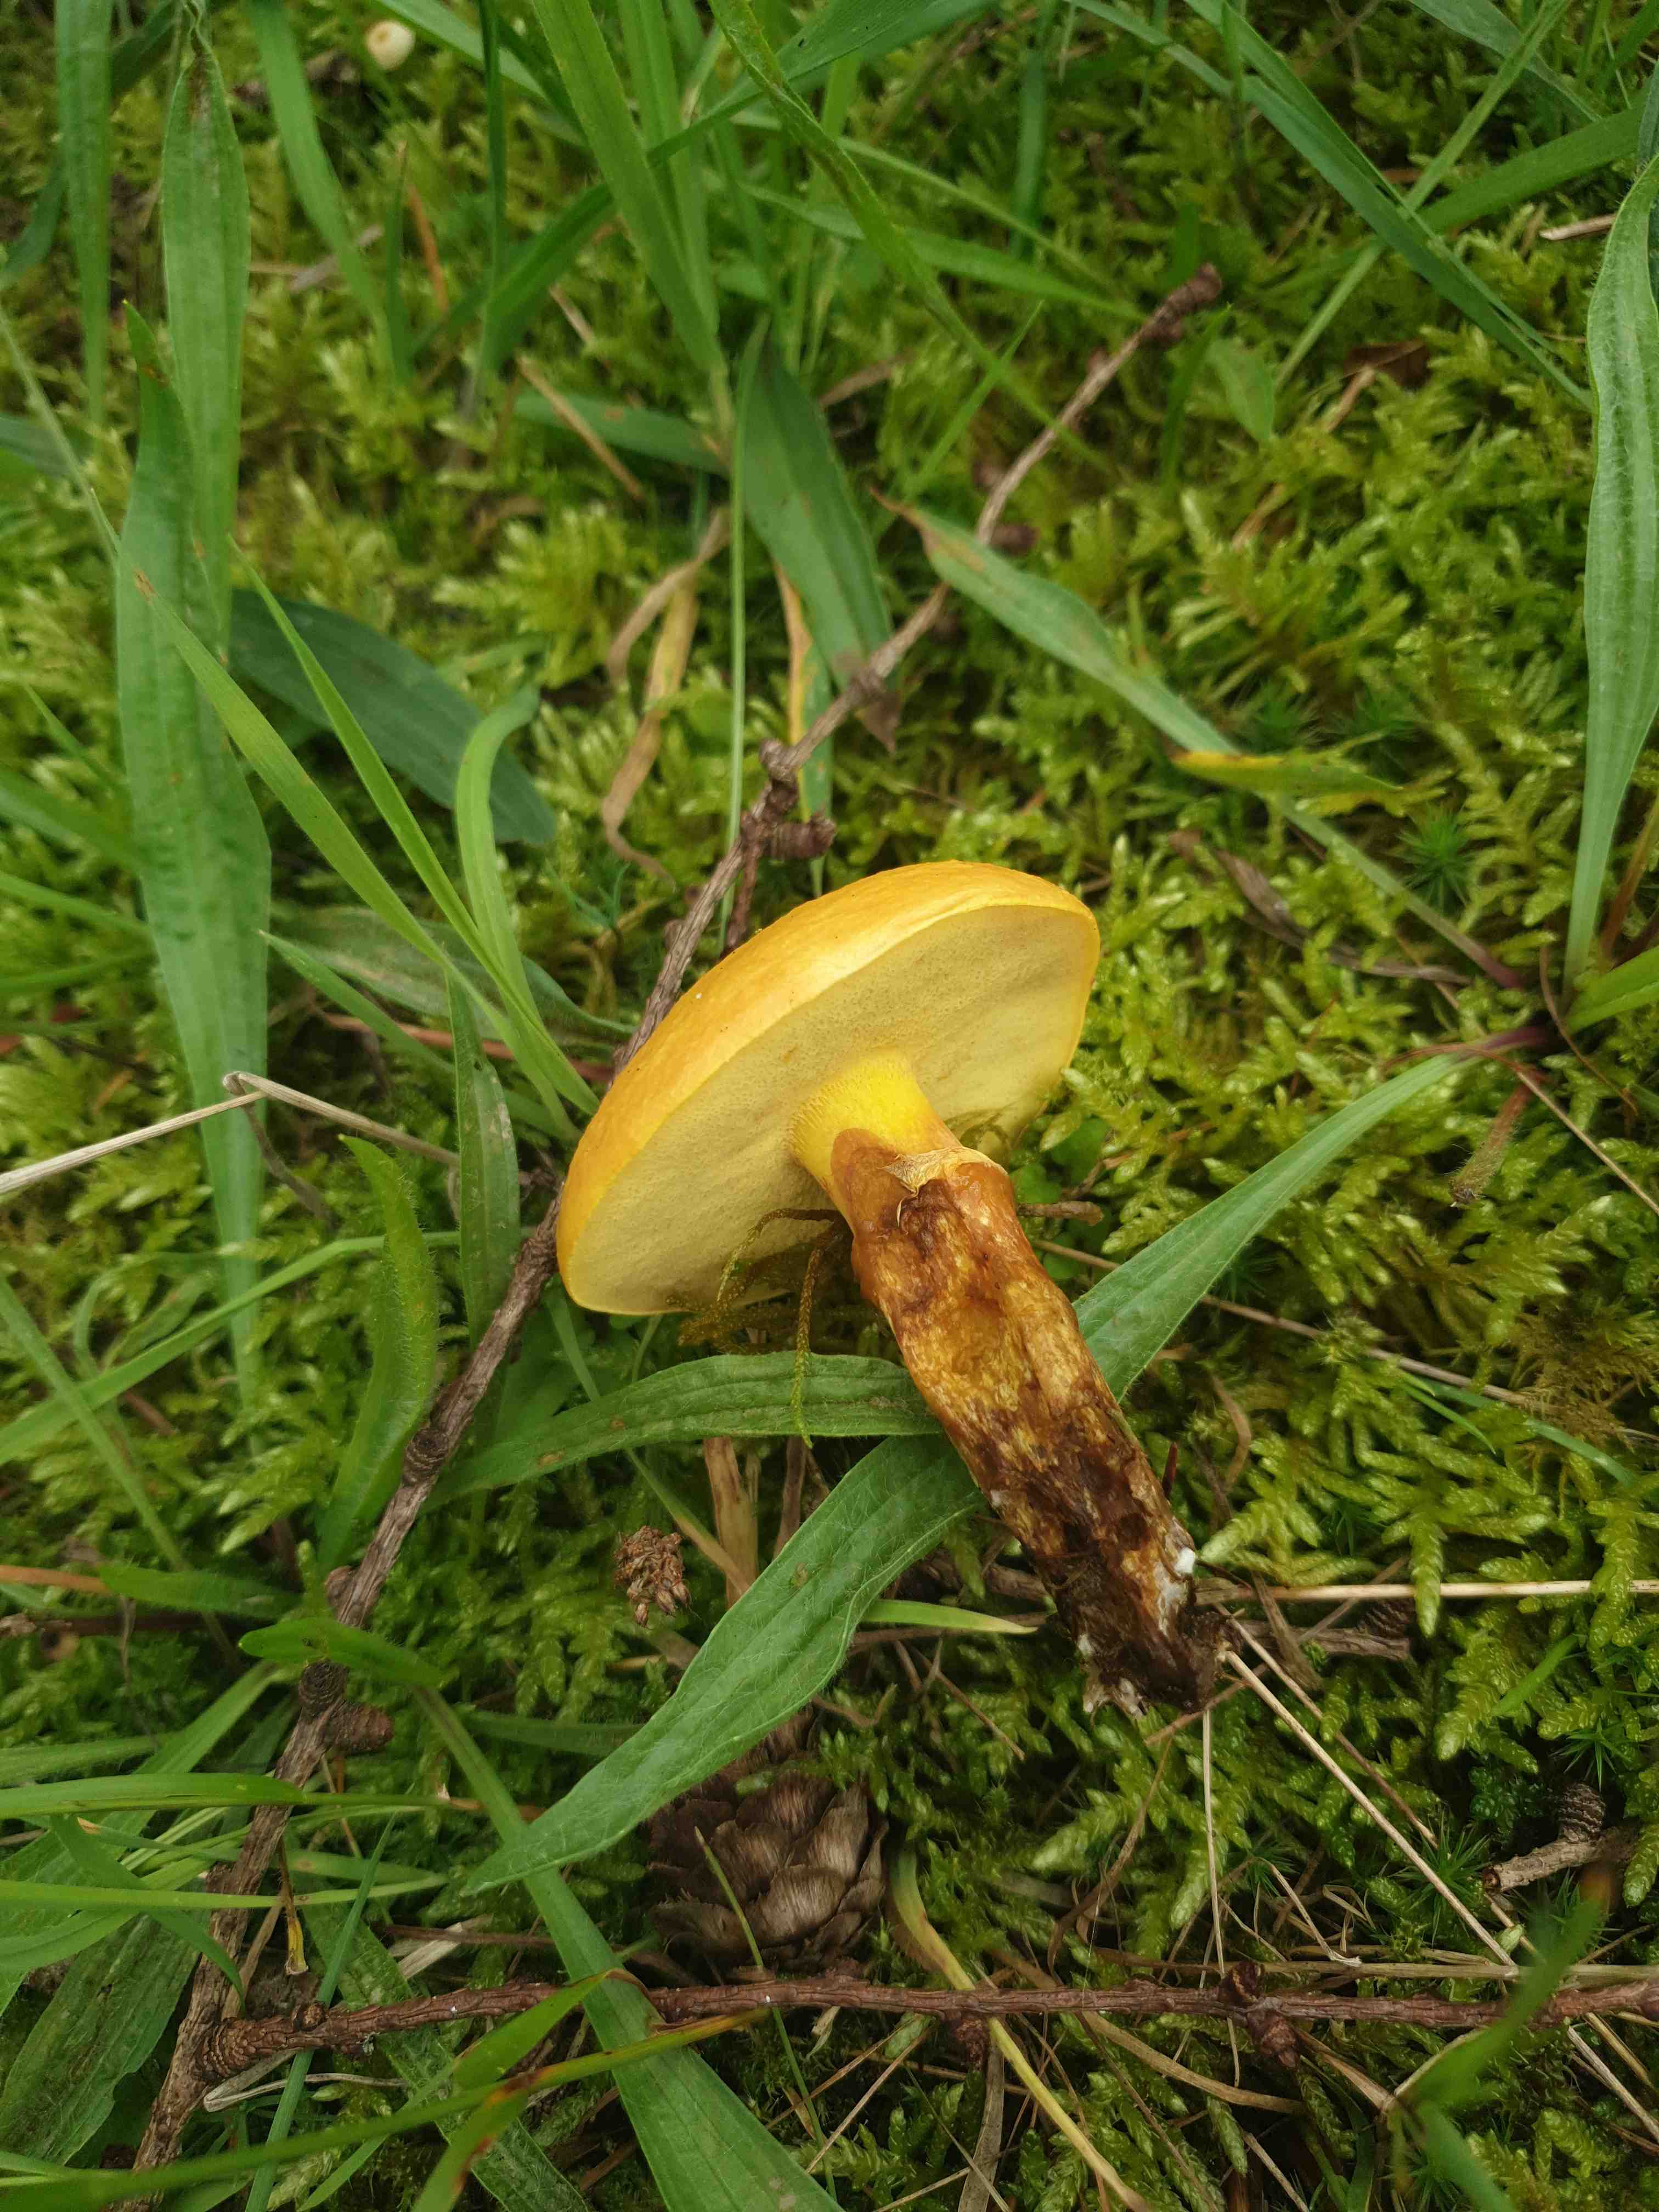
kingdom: Fungi
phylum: Basidiomycota
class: Agaricomycetes
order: Boletales
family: Suillaceae
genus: Suillus
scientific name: Suillus grevillei
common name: lærke-slimrørhat
